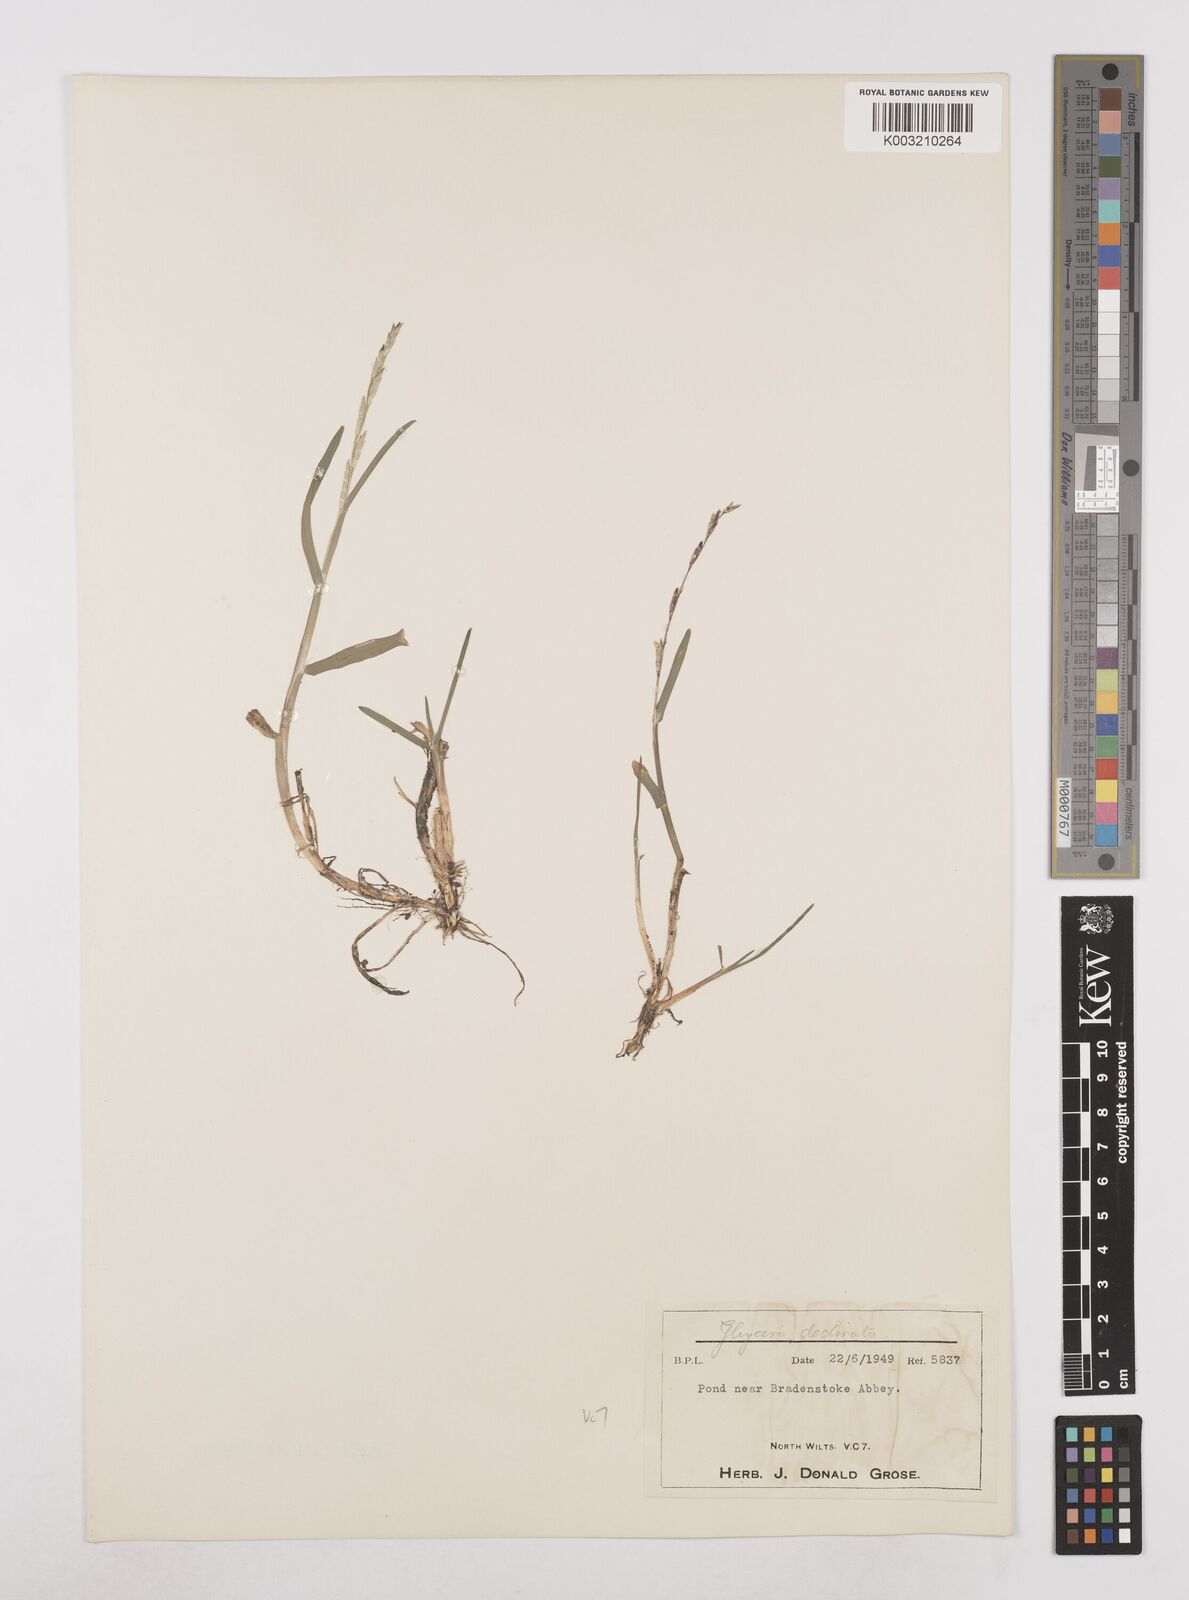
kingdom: Plantae
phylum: Tracheophyta
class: Liliopsida
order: Poales
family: Poaceae
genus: Glyceria
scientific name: Glyceria declinata
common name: Small sweet-grass
